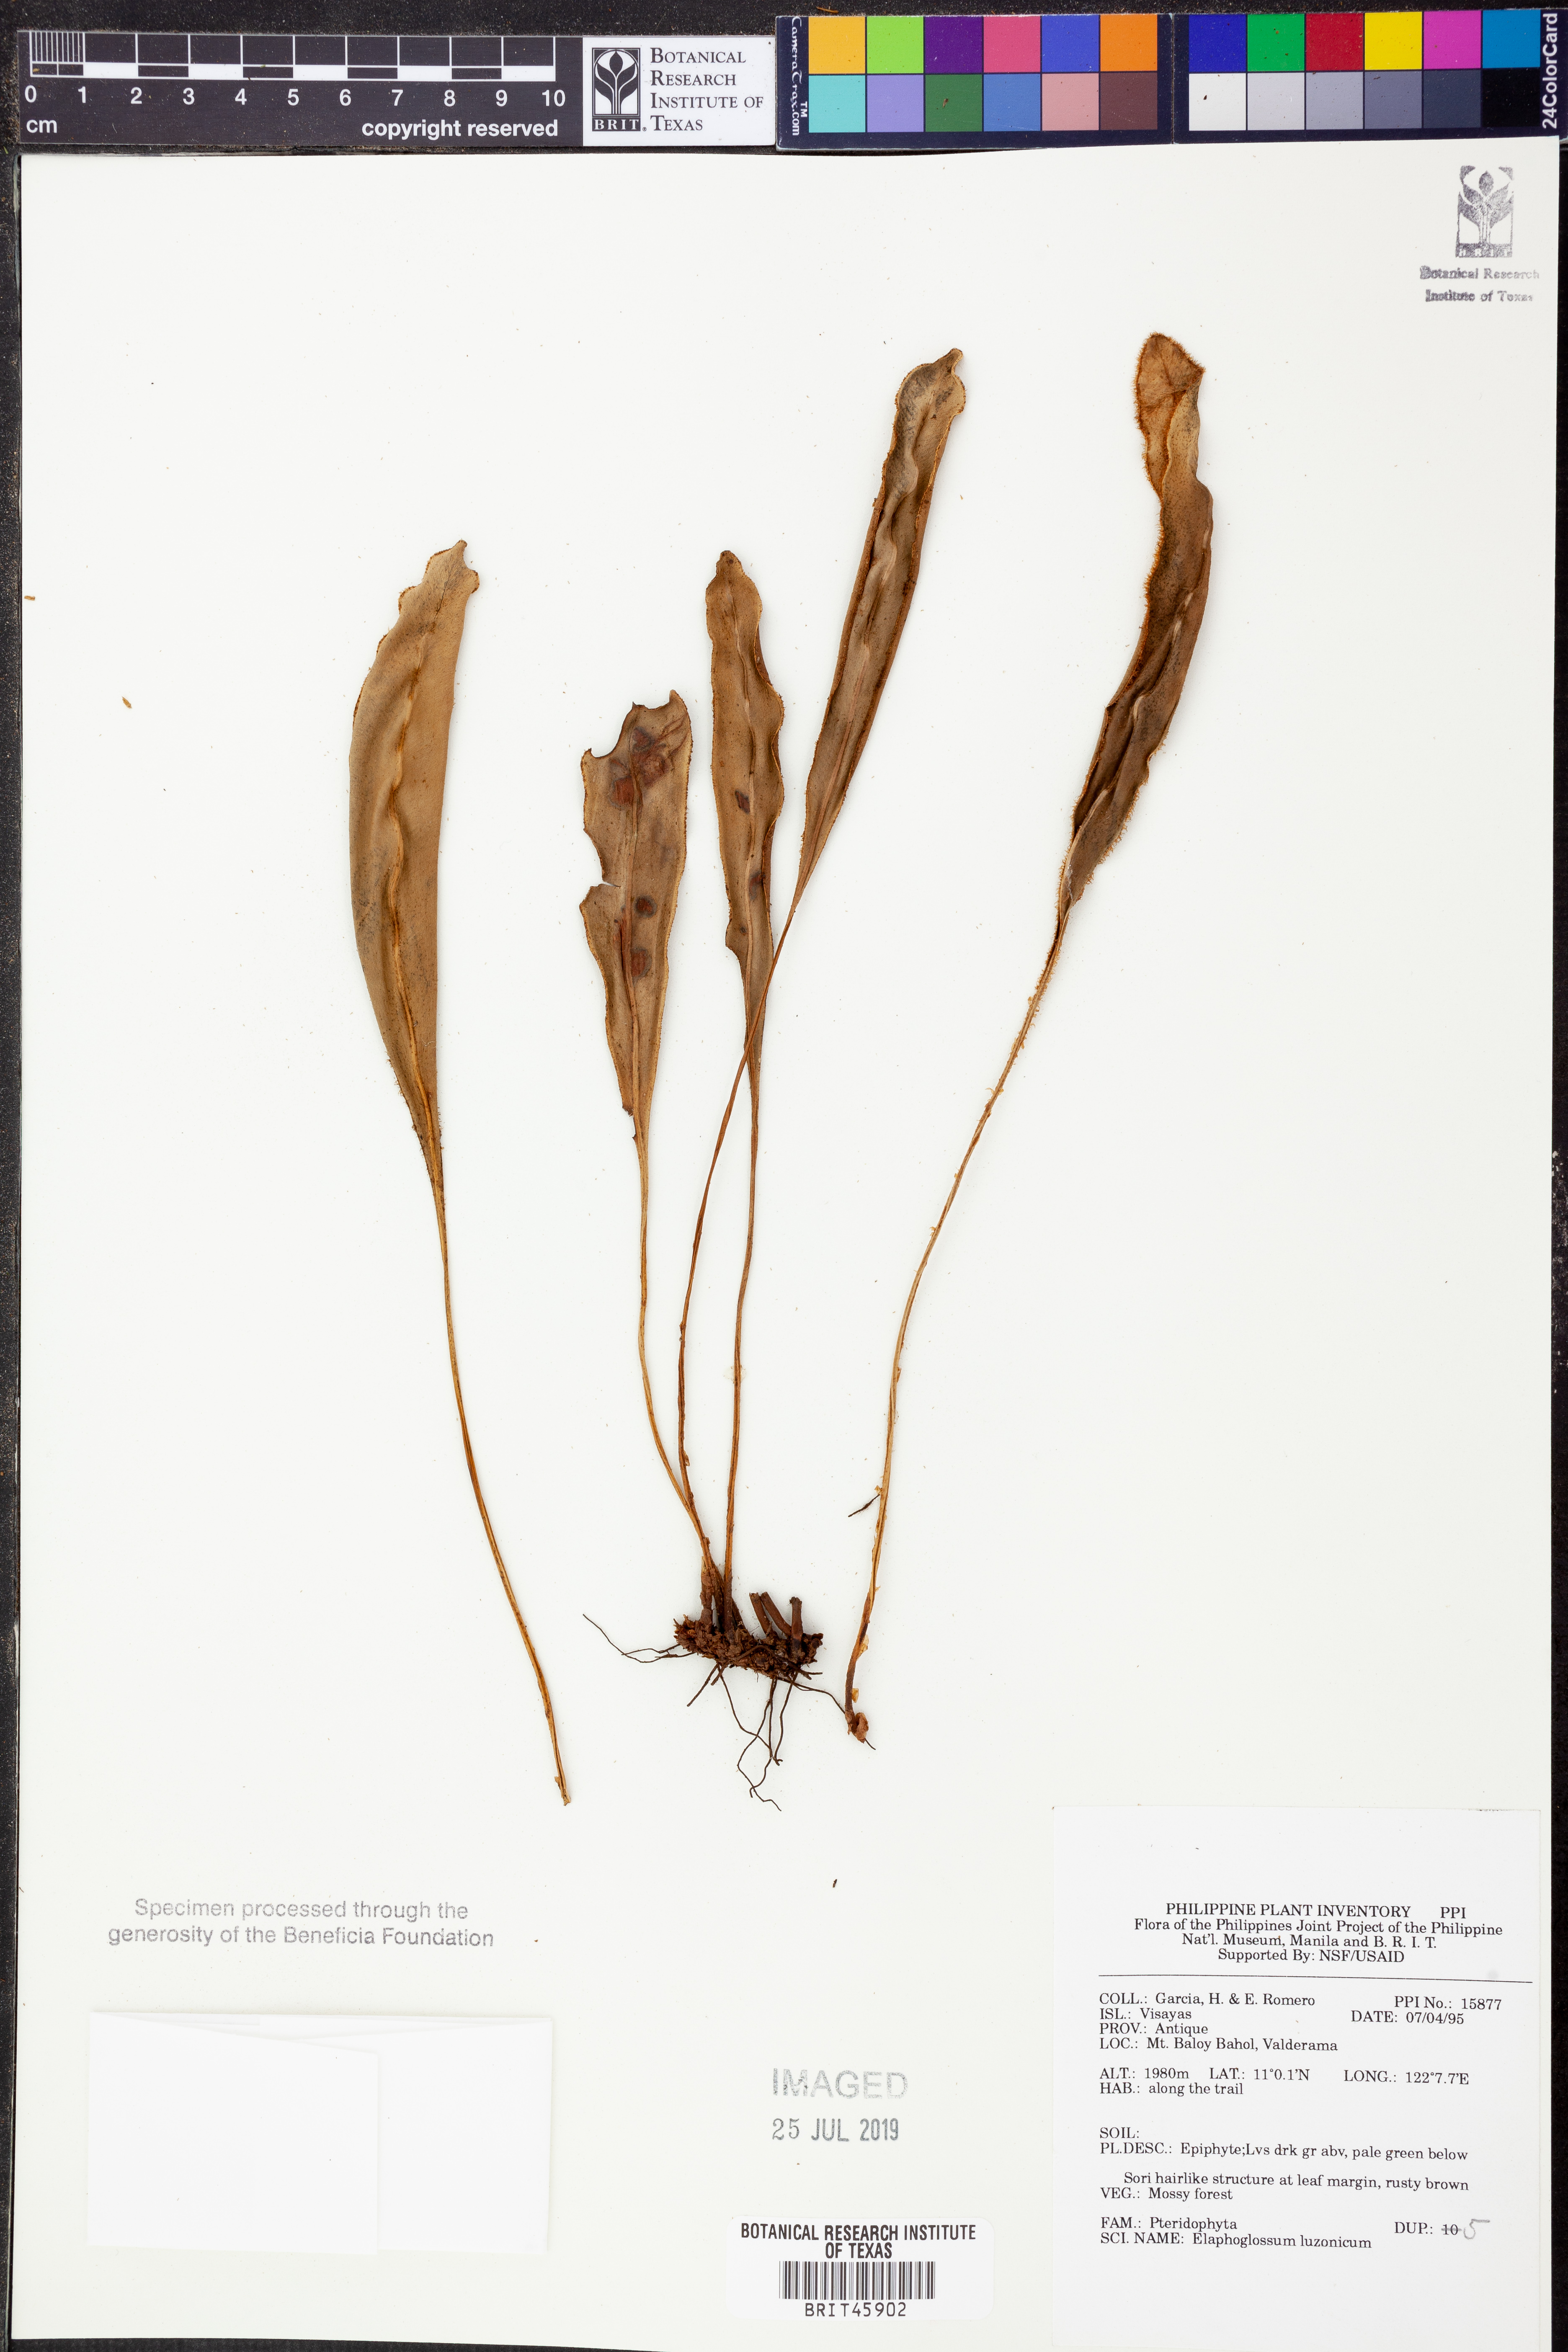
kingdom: Plantae
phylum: Tracheophyta
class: Polypodiopsida
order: Polypodiales
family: Dryopteridaceae
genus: Elaphoglossum
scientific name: Elaphoglossum luzonicum
